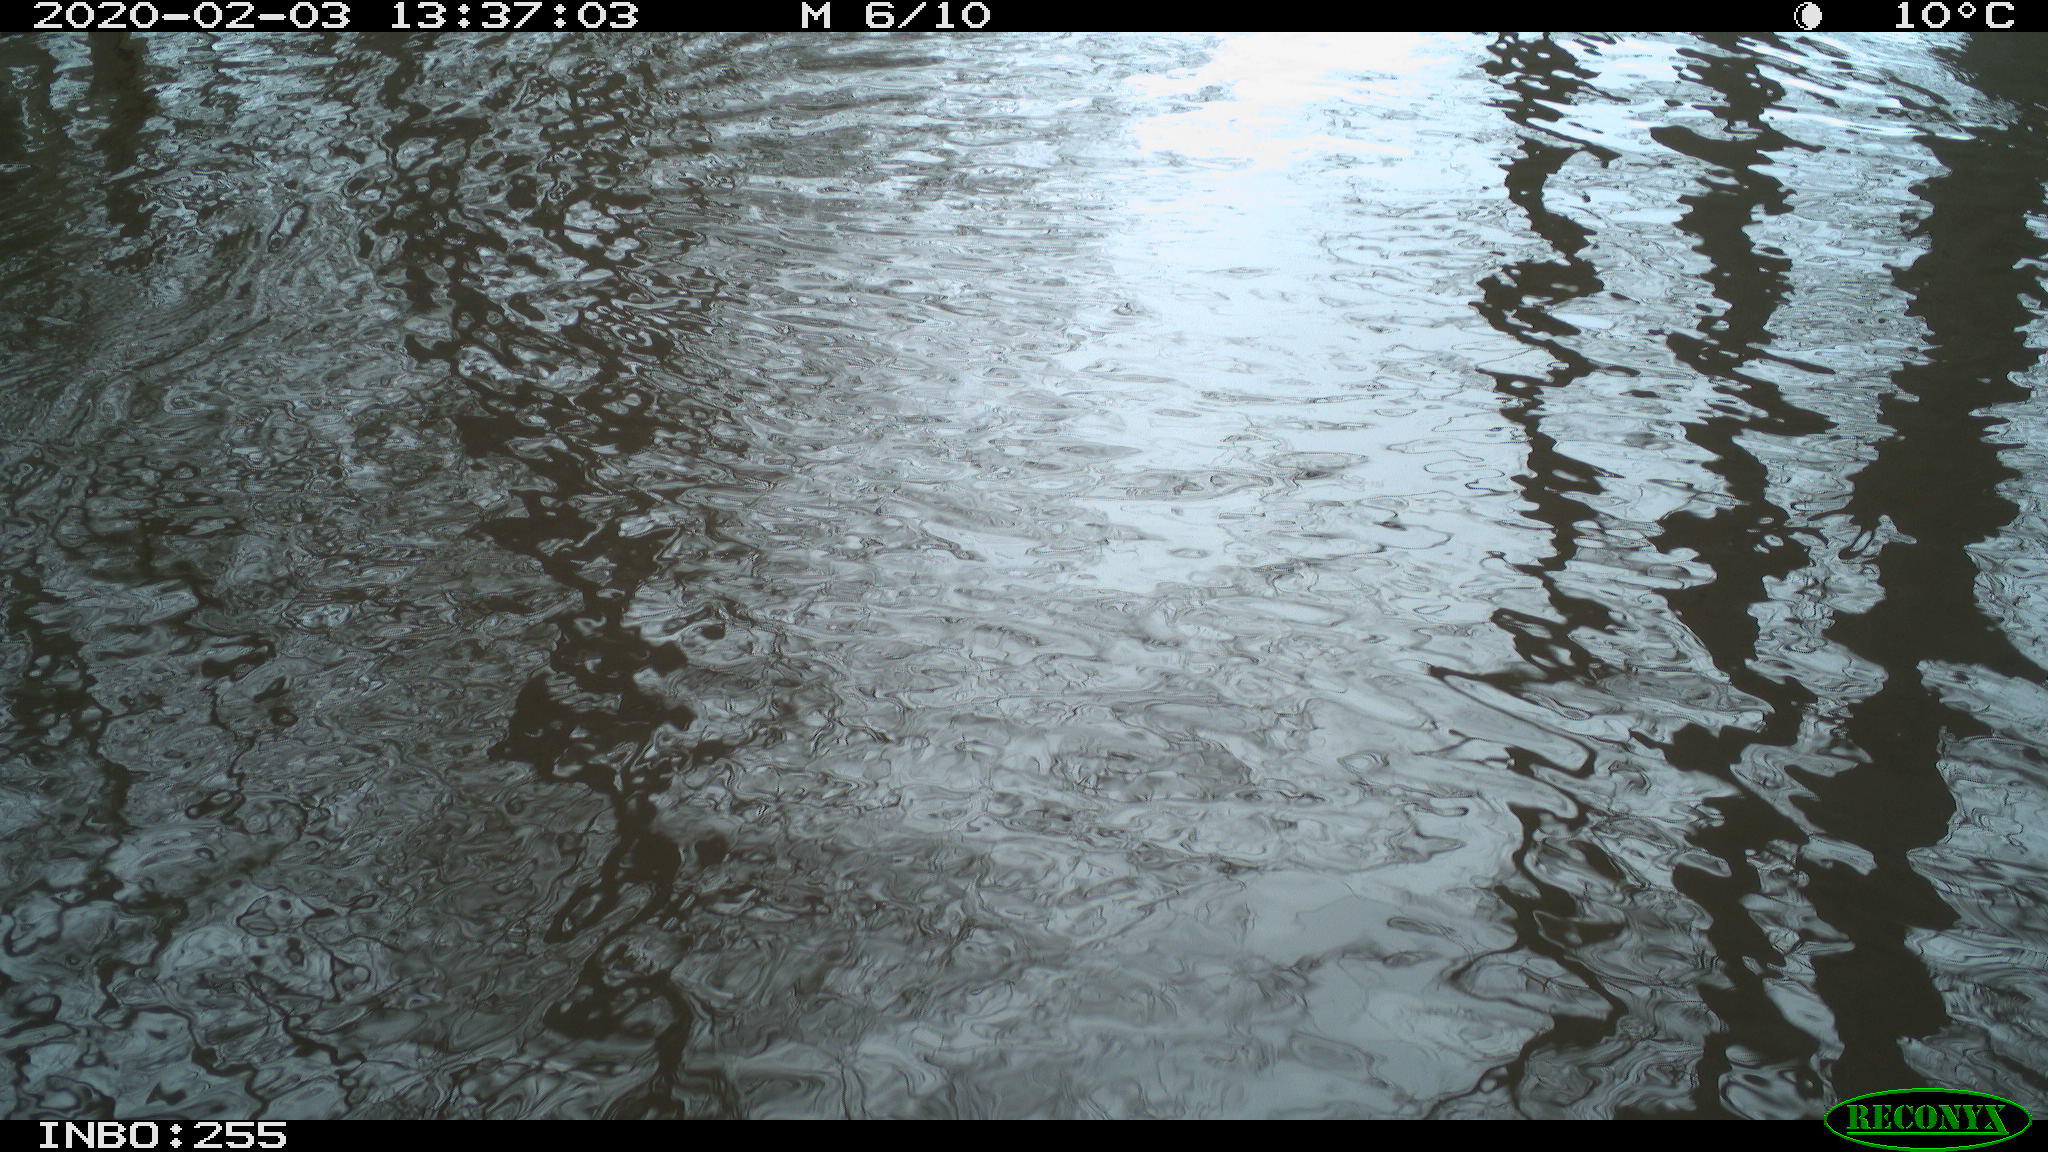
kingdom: Animalia
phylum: Chordata
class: Aves
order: Gruiformes
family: Rallidae
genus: Gallinula
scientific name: Gallinula chloropus
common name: Common moorhen
